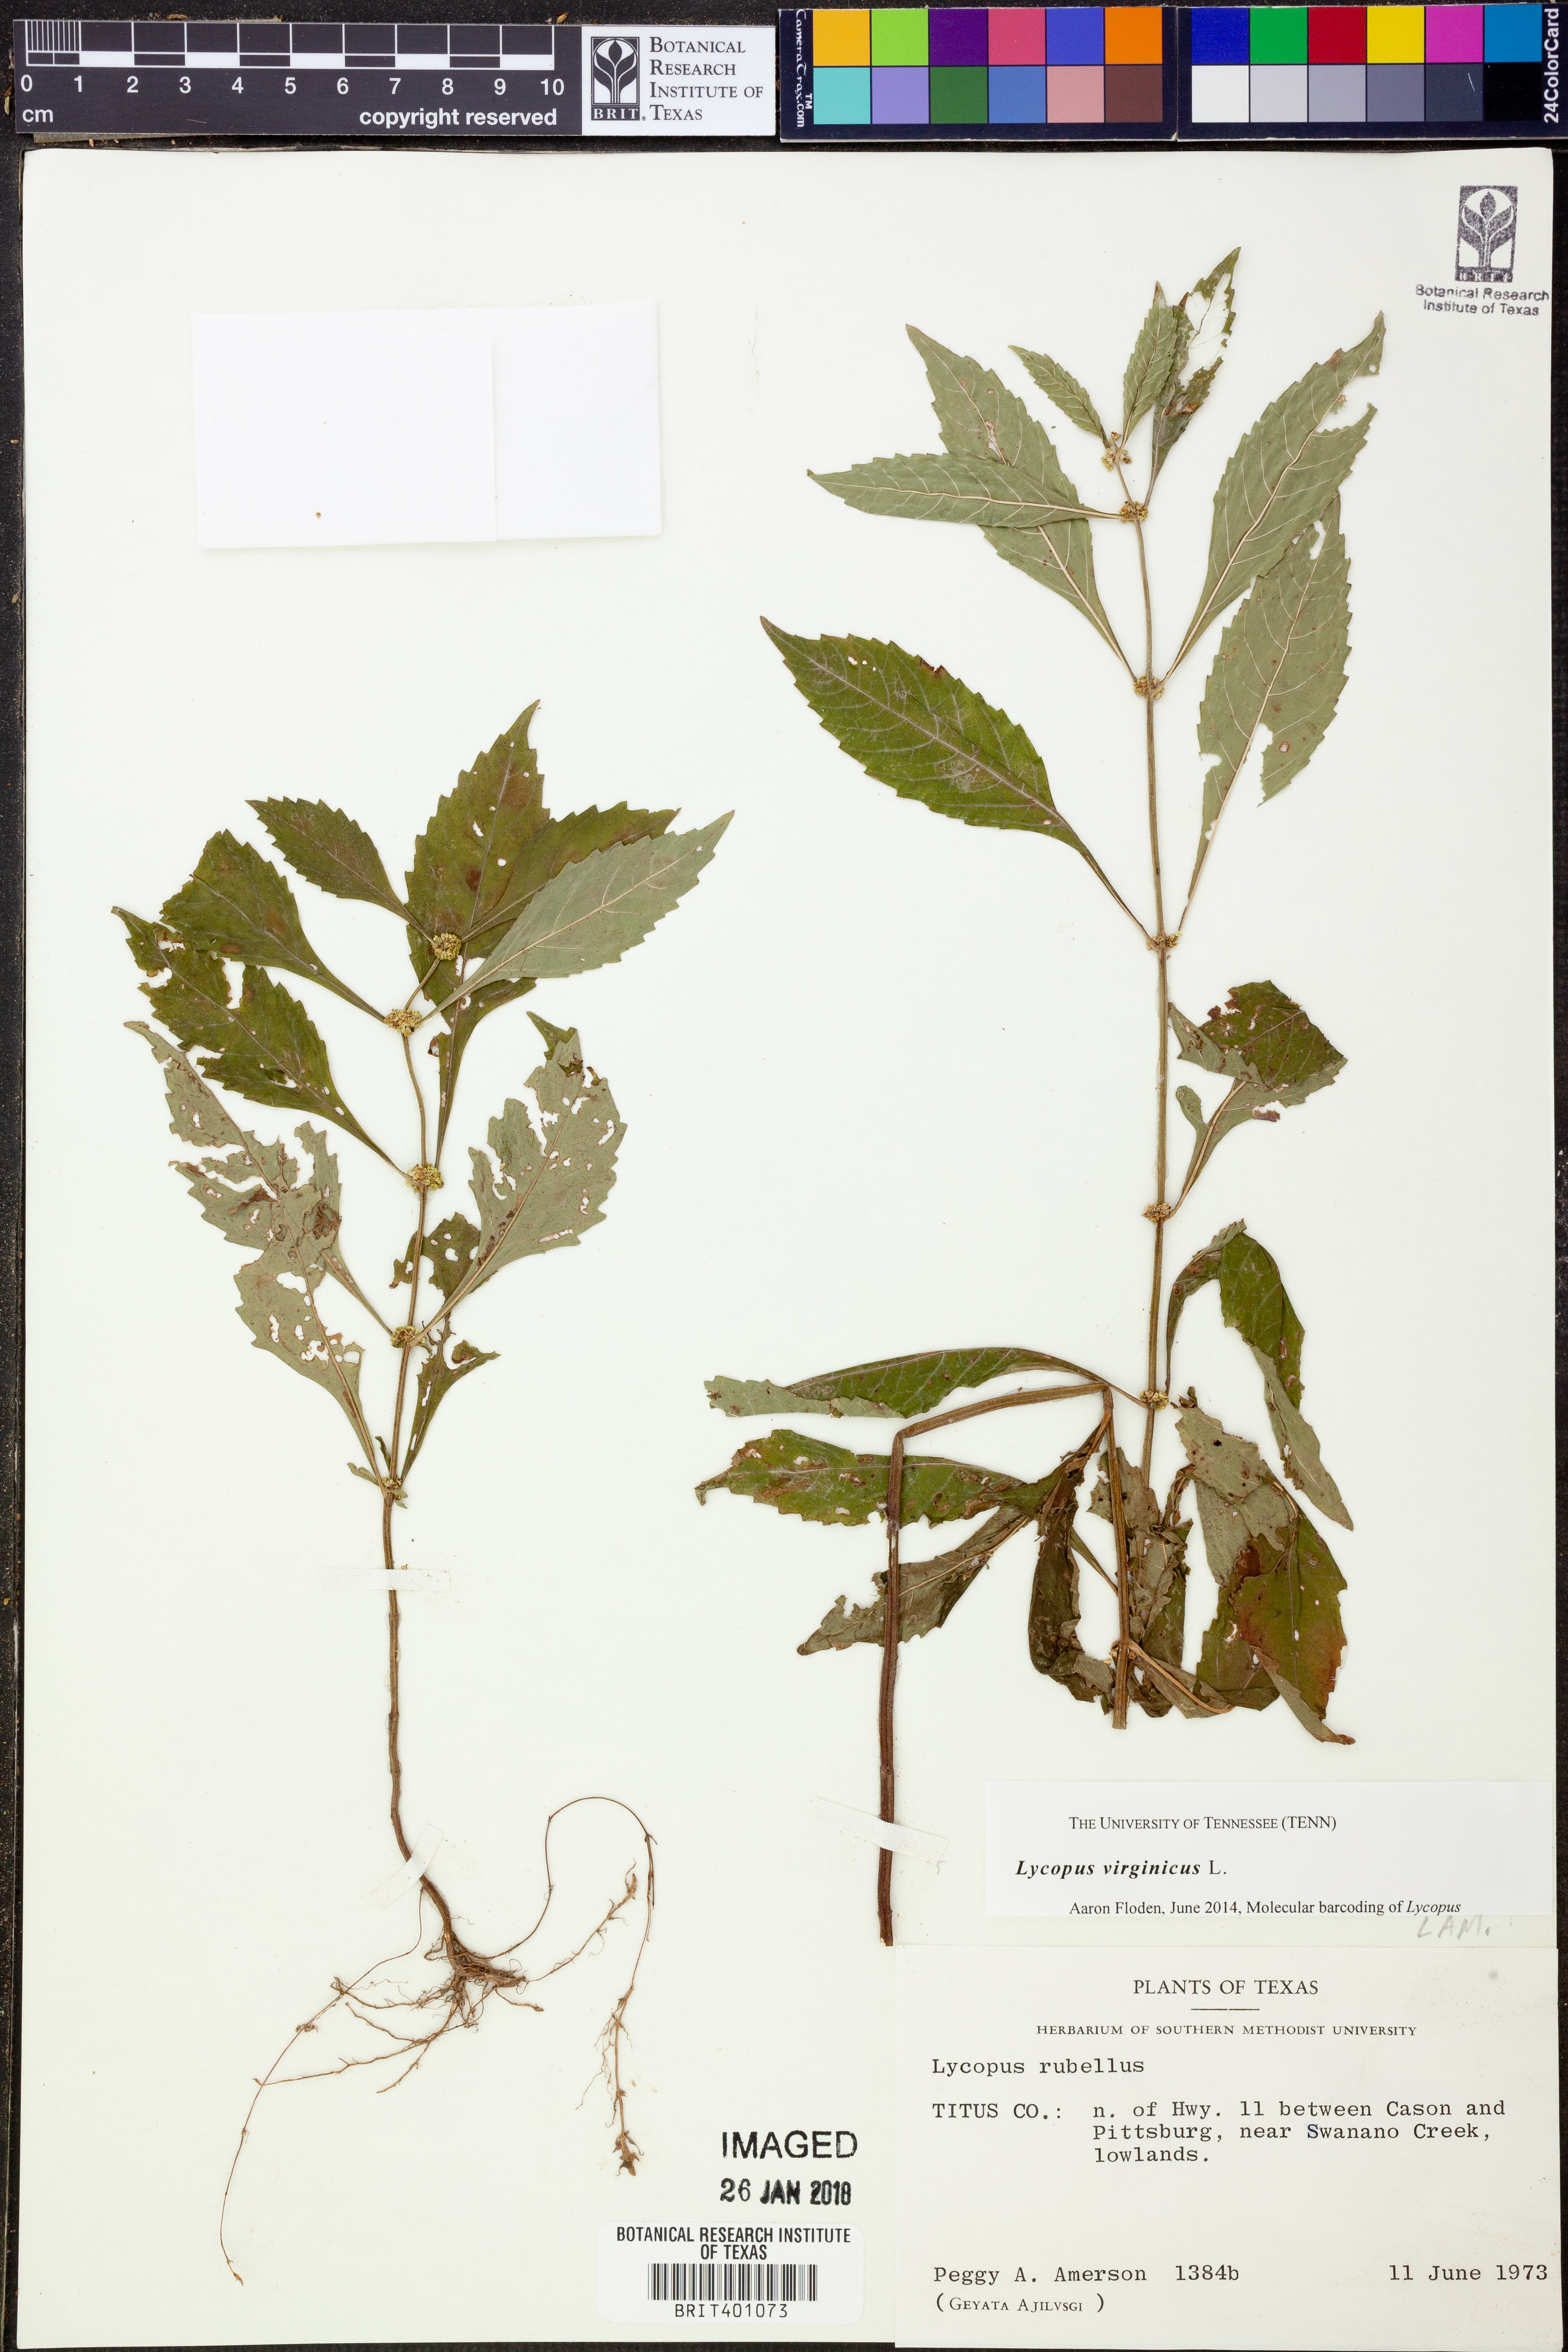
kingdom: Plantae
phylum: Tracheophyta
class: Magnoliopsida
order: Lamiales
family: Lamiaceae
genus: Lycopus
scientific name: Lycopus virginicus
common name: Bugleweed
